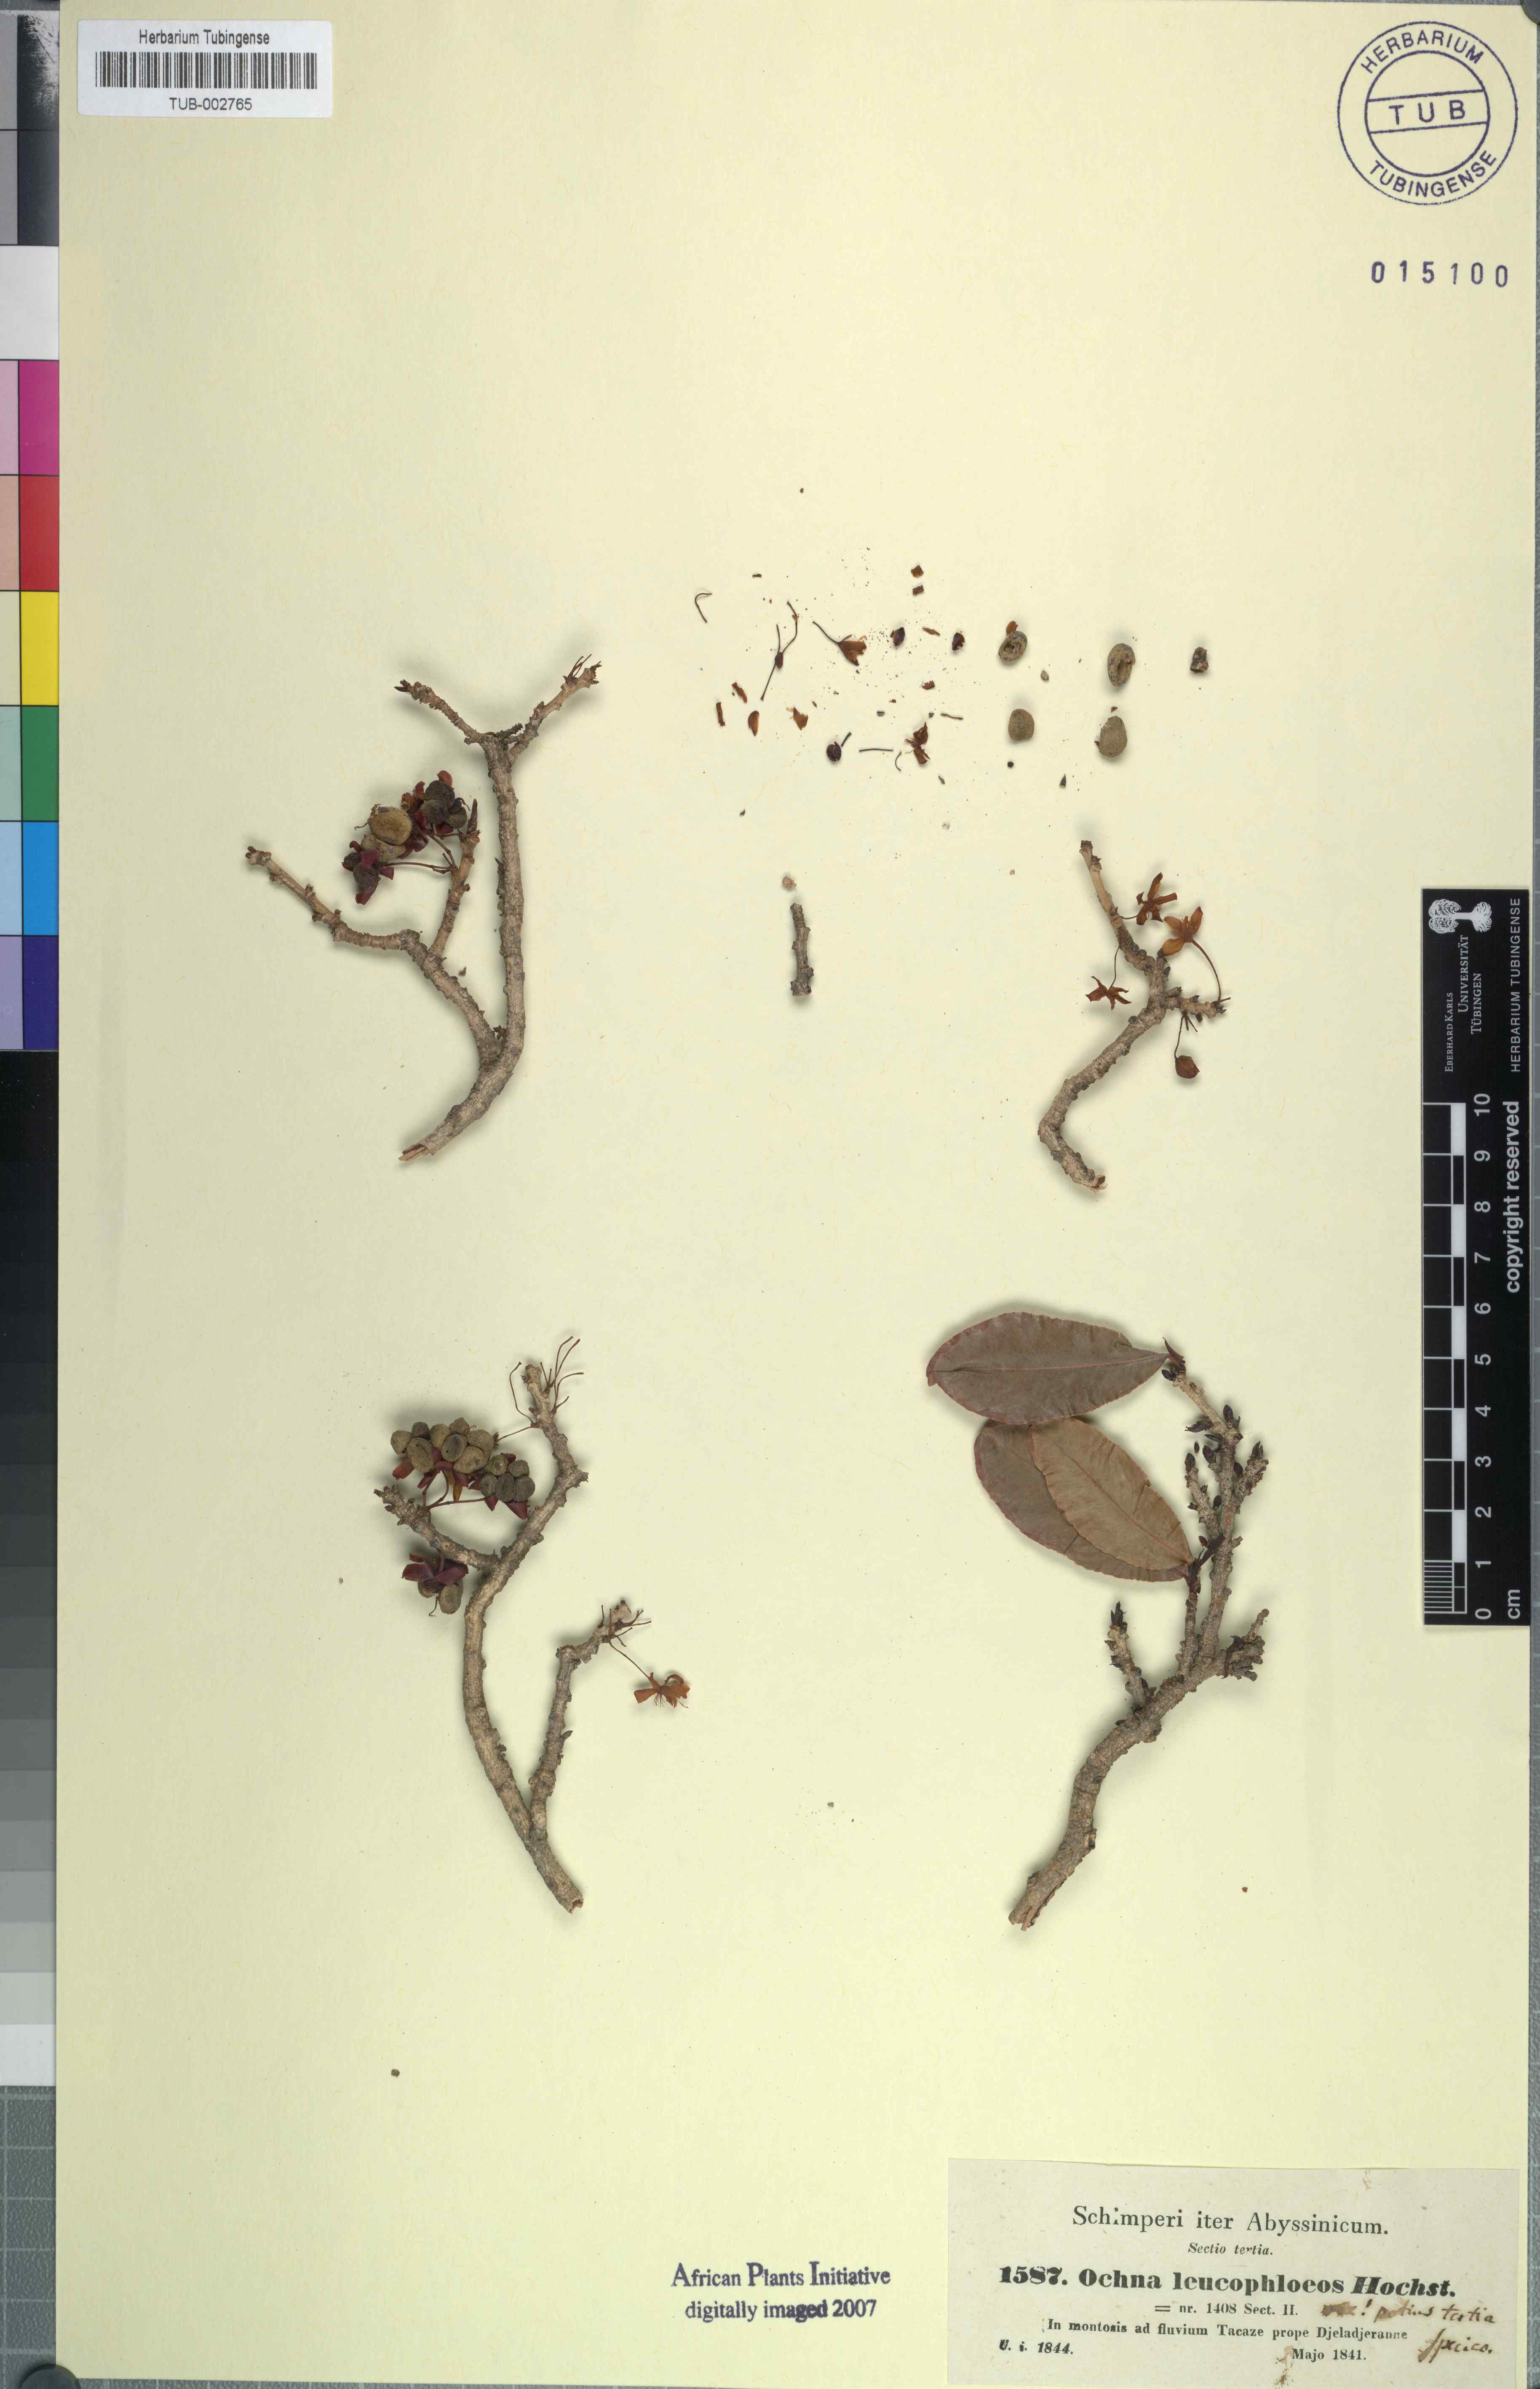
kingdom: Plantae
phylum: Tracheophyta
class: Magnoliopsida
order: Malpighiales
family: Ochnaceae
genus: Ochna
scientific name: Ochna leucophloeos
